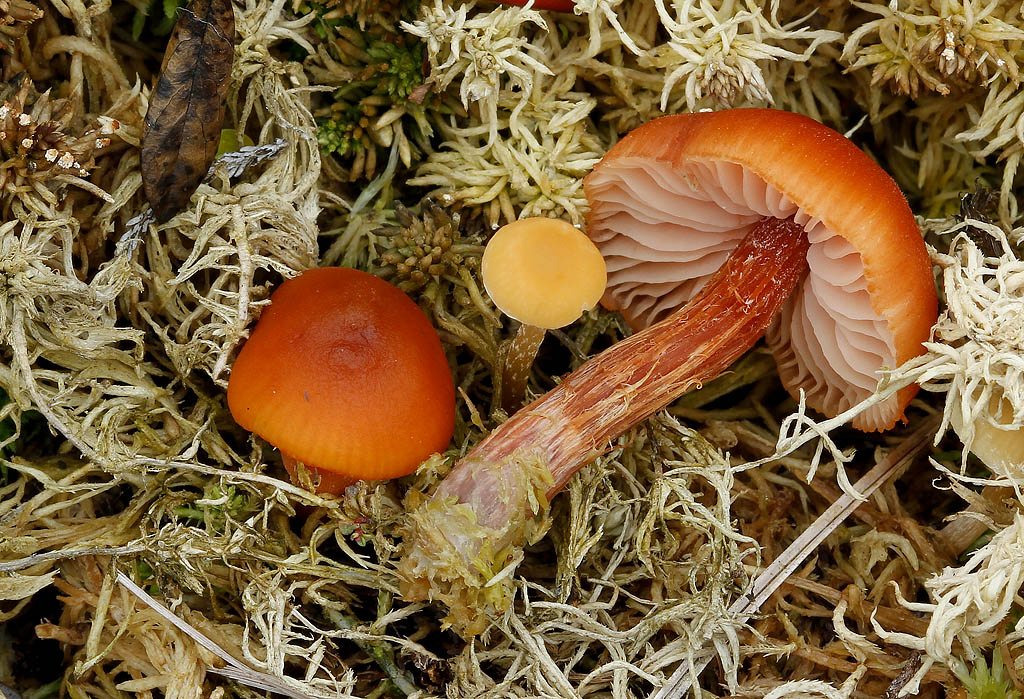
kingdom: Fungi
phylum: Basidiomycota
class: Agaricomycetes
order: Agaricales
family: Hydnangiaceae
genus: Laccaria
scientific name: Laccaria bicolor
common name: tvefarvet ametysthat
